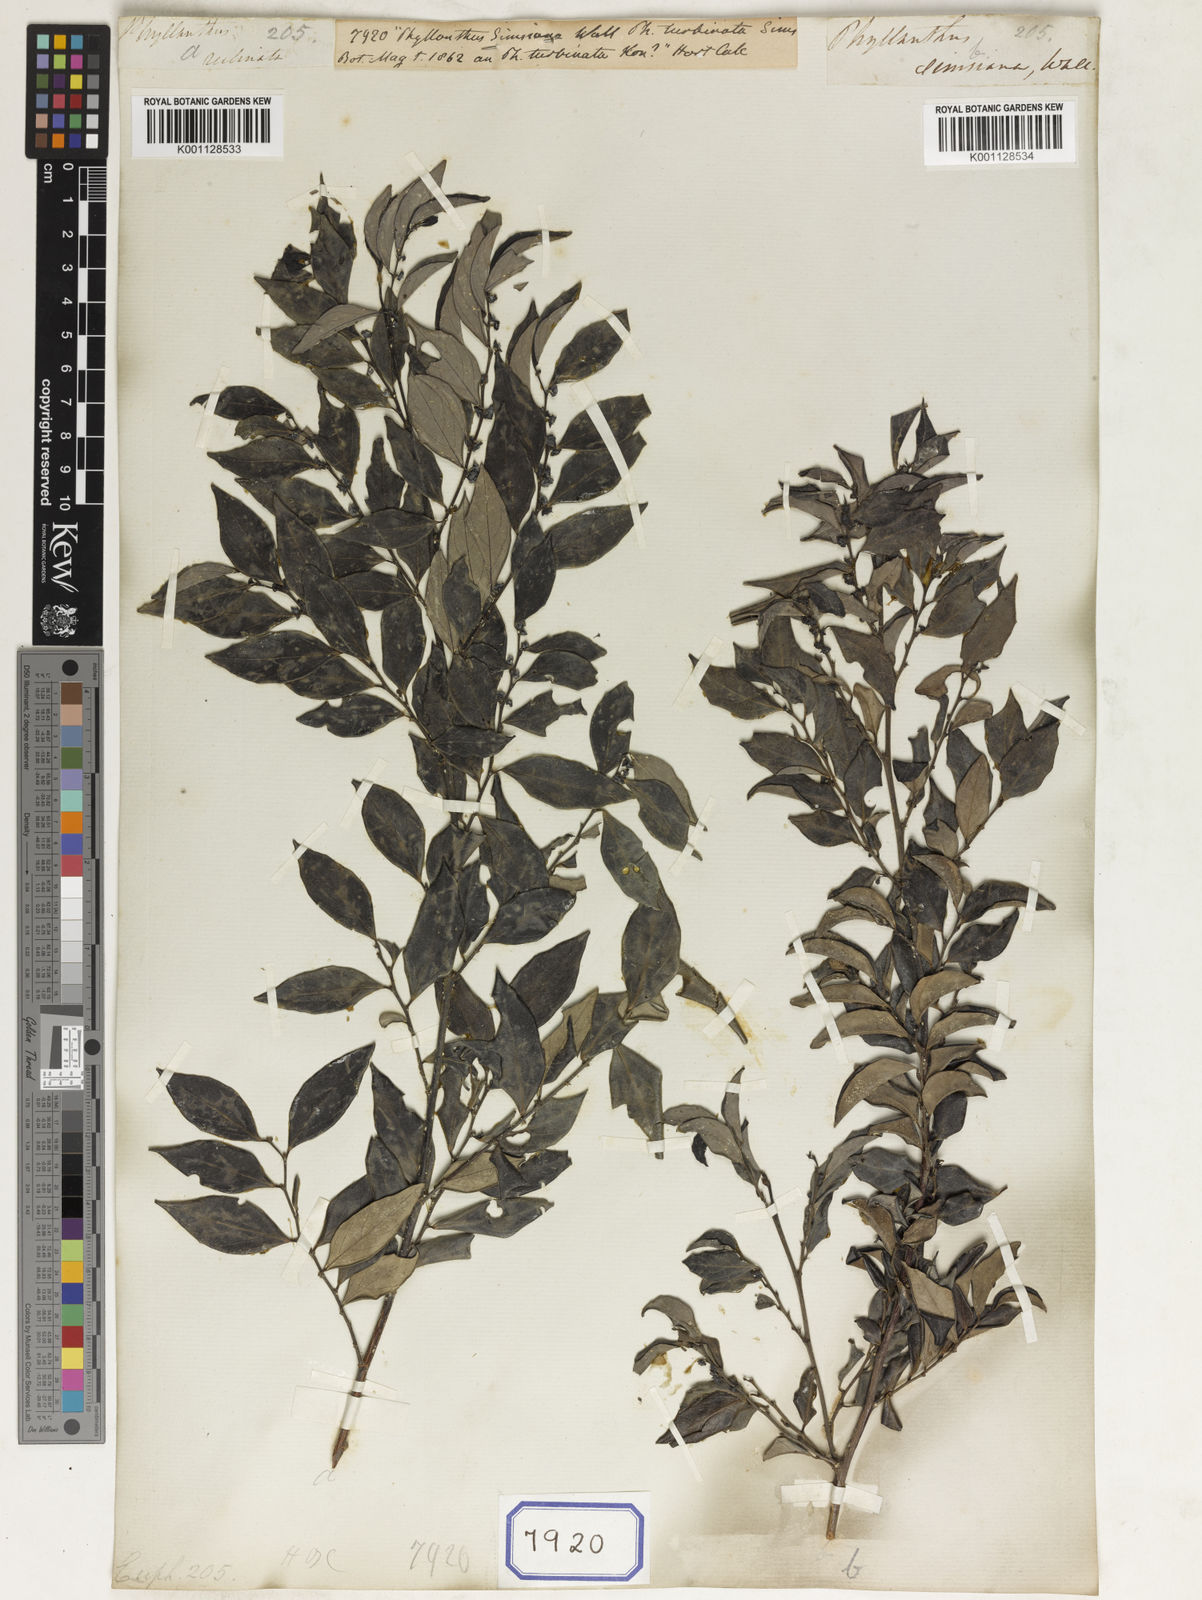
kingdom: Plantae
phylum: Tracheophyta
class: Magnoliopsida
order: Malpighiales
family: Euphorbiaceae
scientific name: Euphorbiaceae
